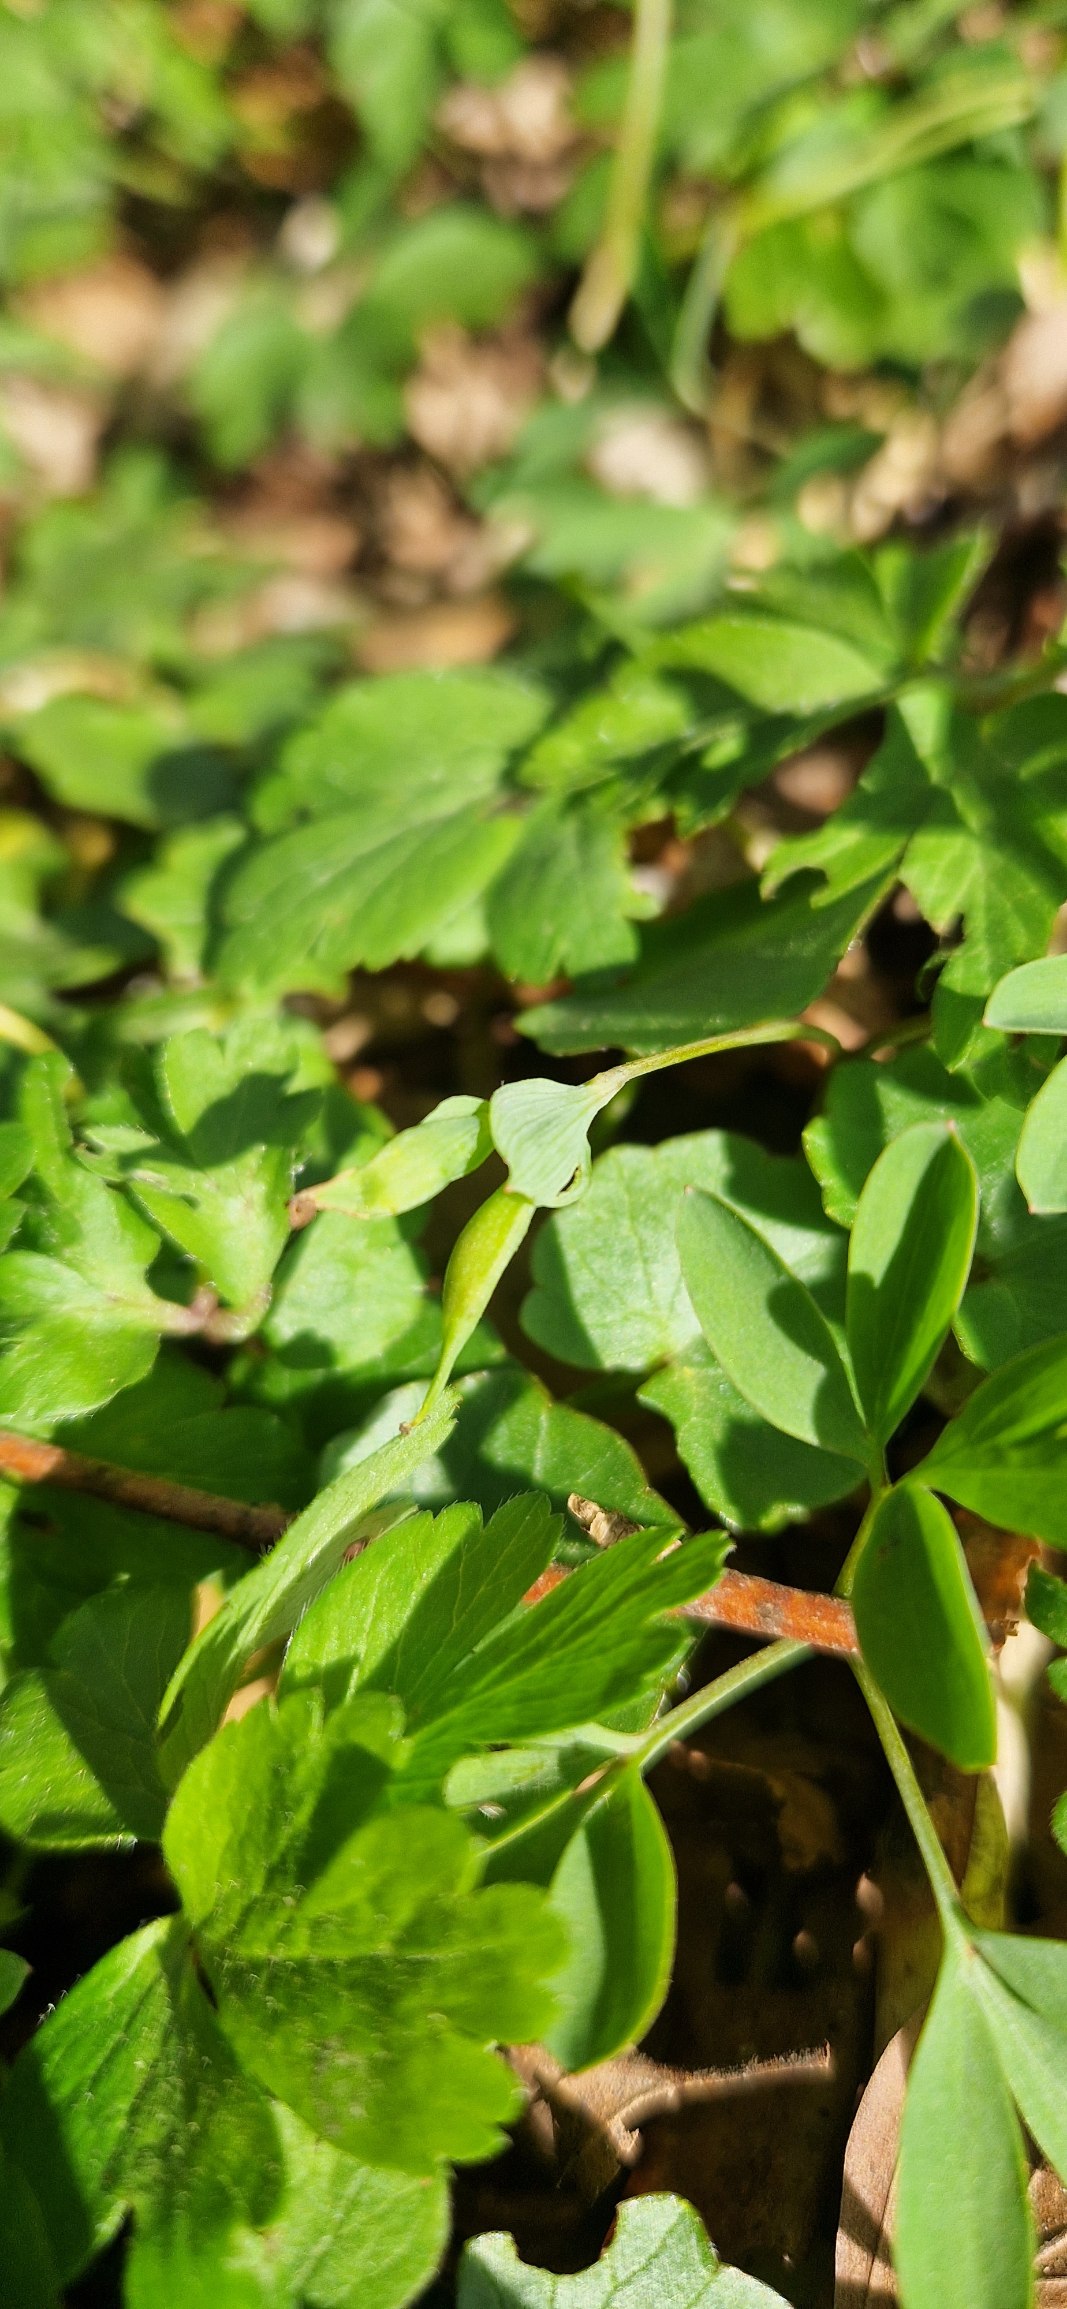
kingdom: Plantae
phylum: Tracheophyta
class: Magnoliopsida
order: Ranunculales
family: Papaveraceae
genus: Corydalis
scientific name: Corydalis intermedia
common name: Liden lærkespore
